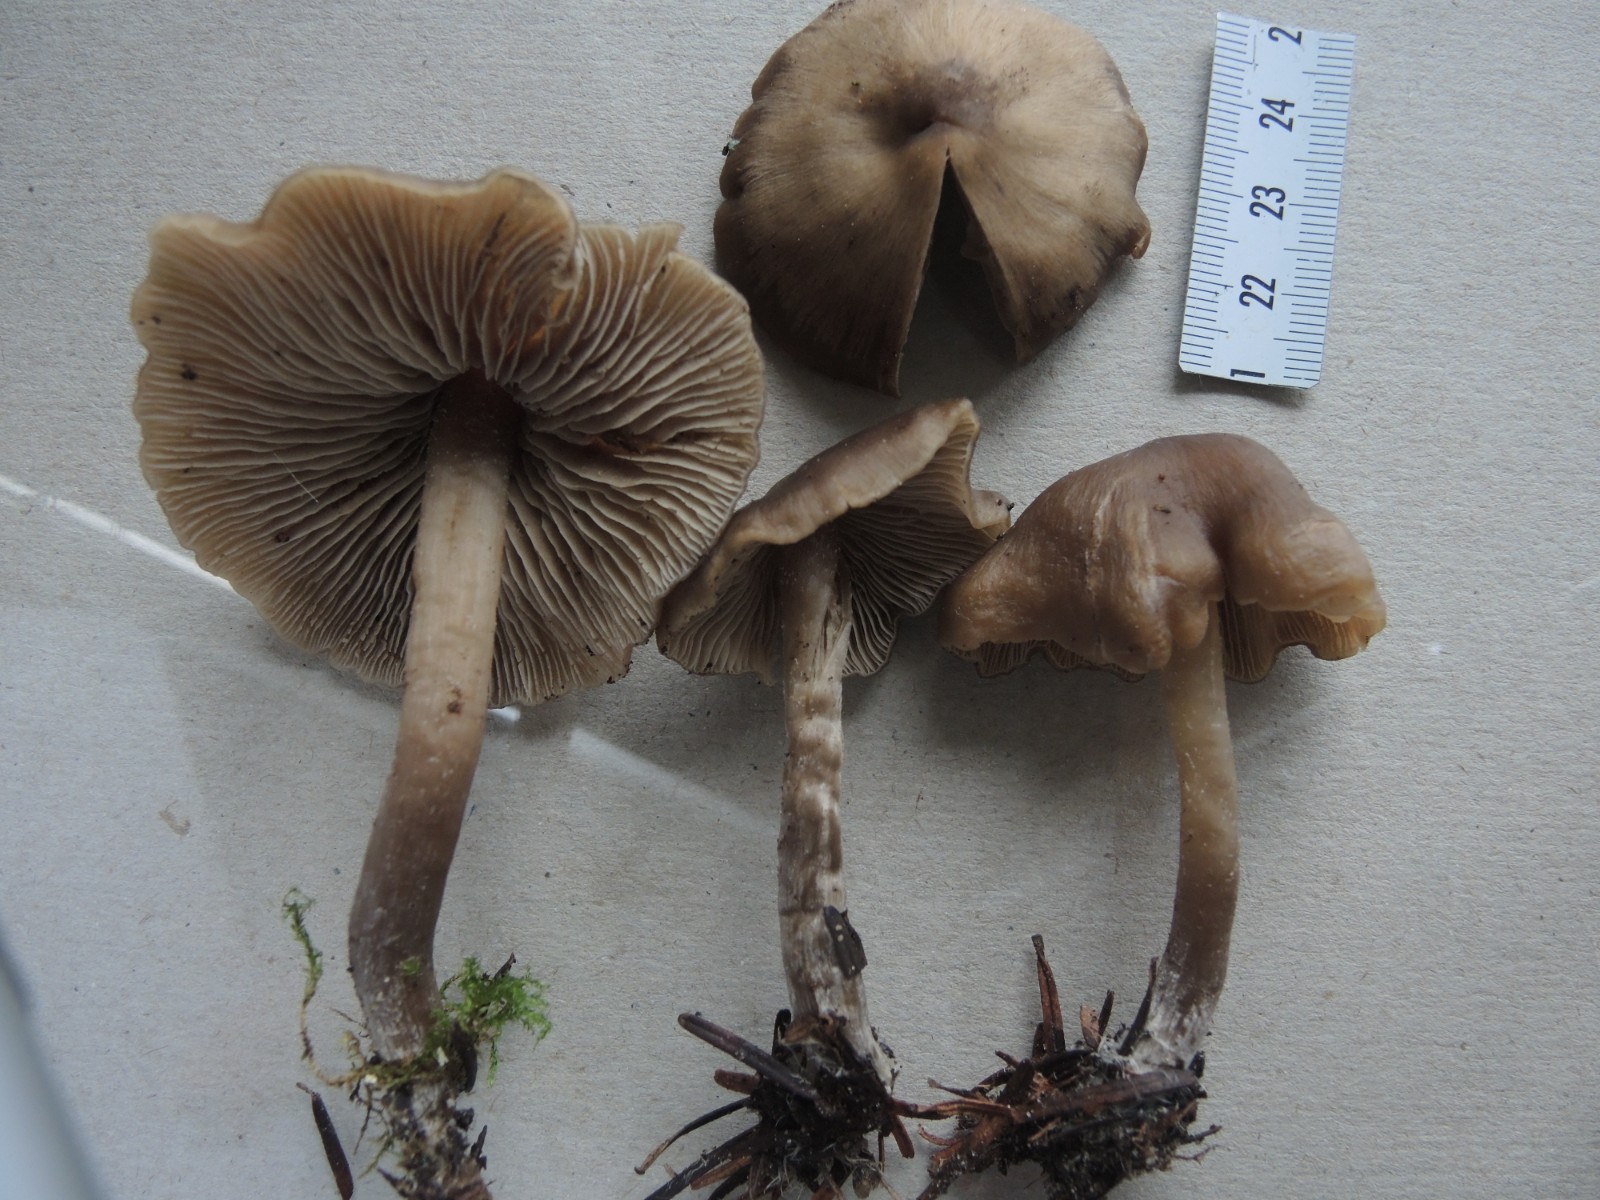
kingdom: Fungi
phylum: Basidiomycota
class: Agaricomycetes
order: Agaricales
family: Lyophyllaceae
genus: Lyophyllum
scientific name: Lyophyllum fibrosipes
